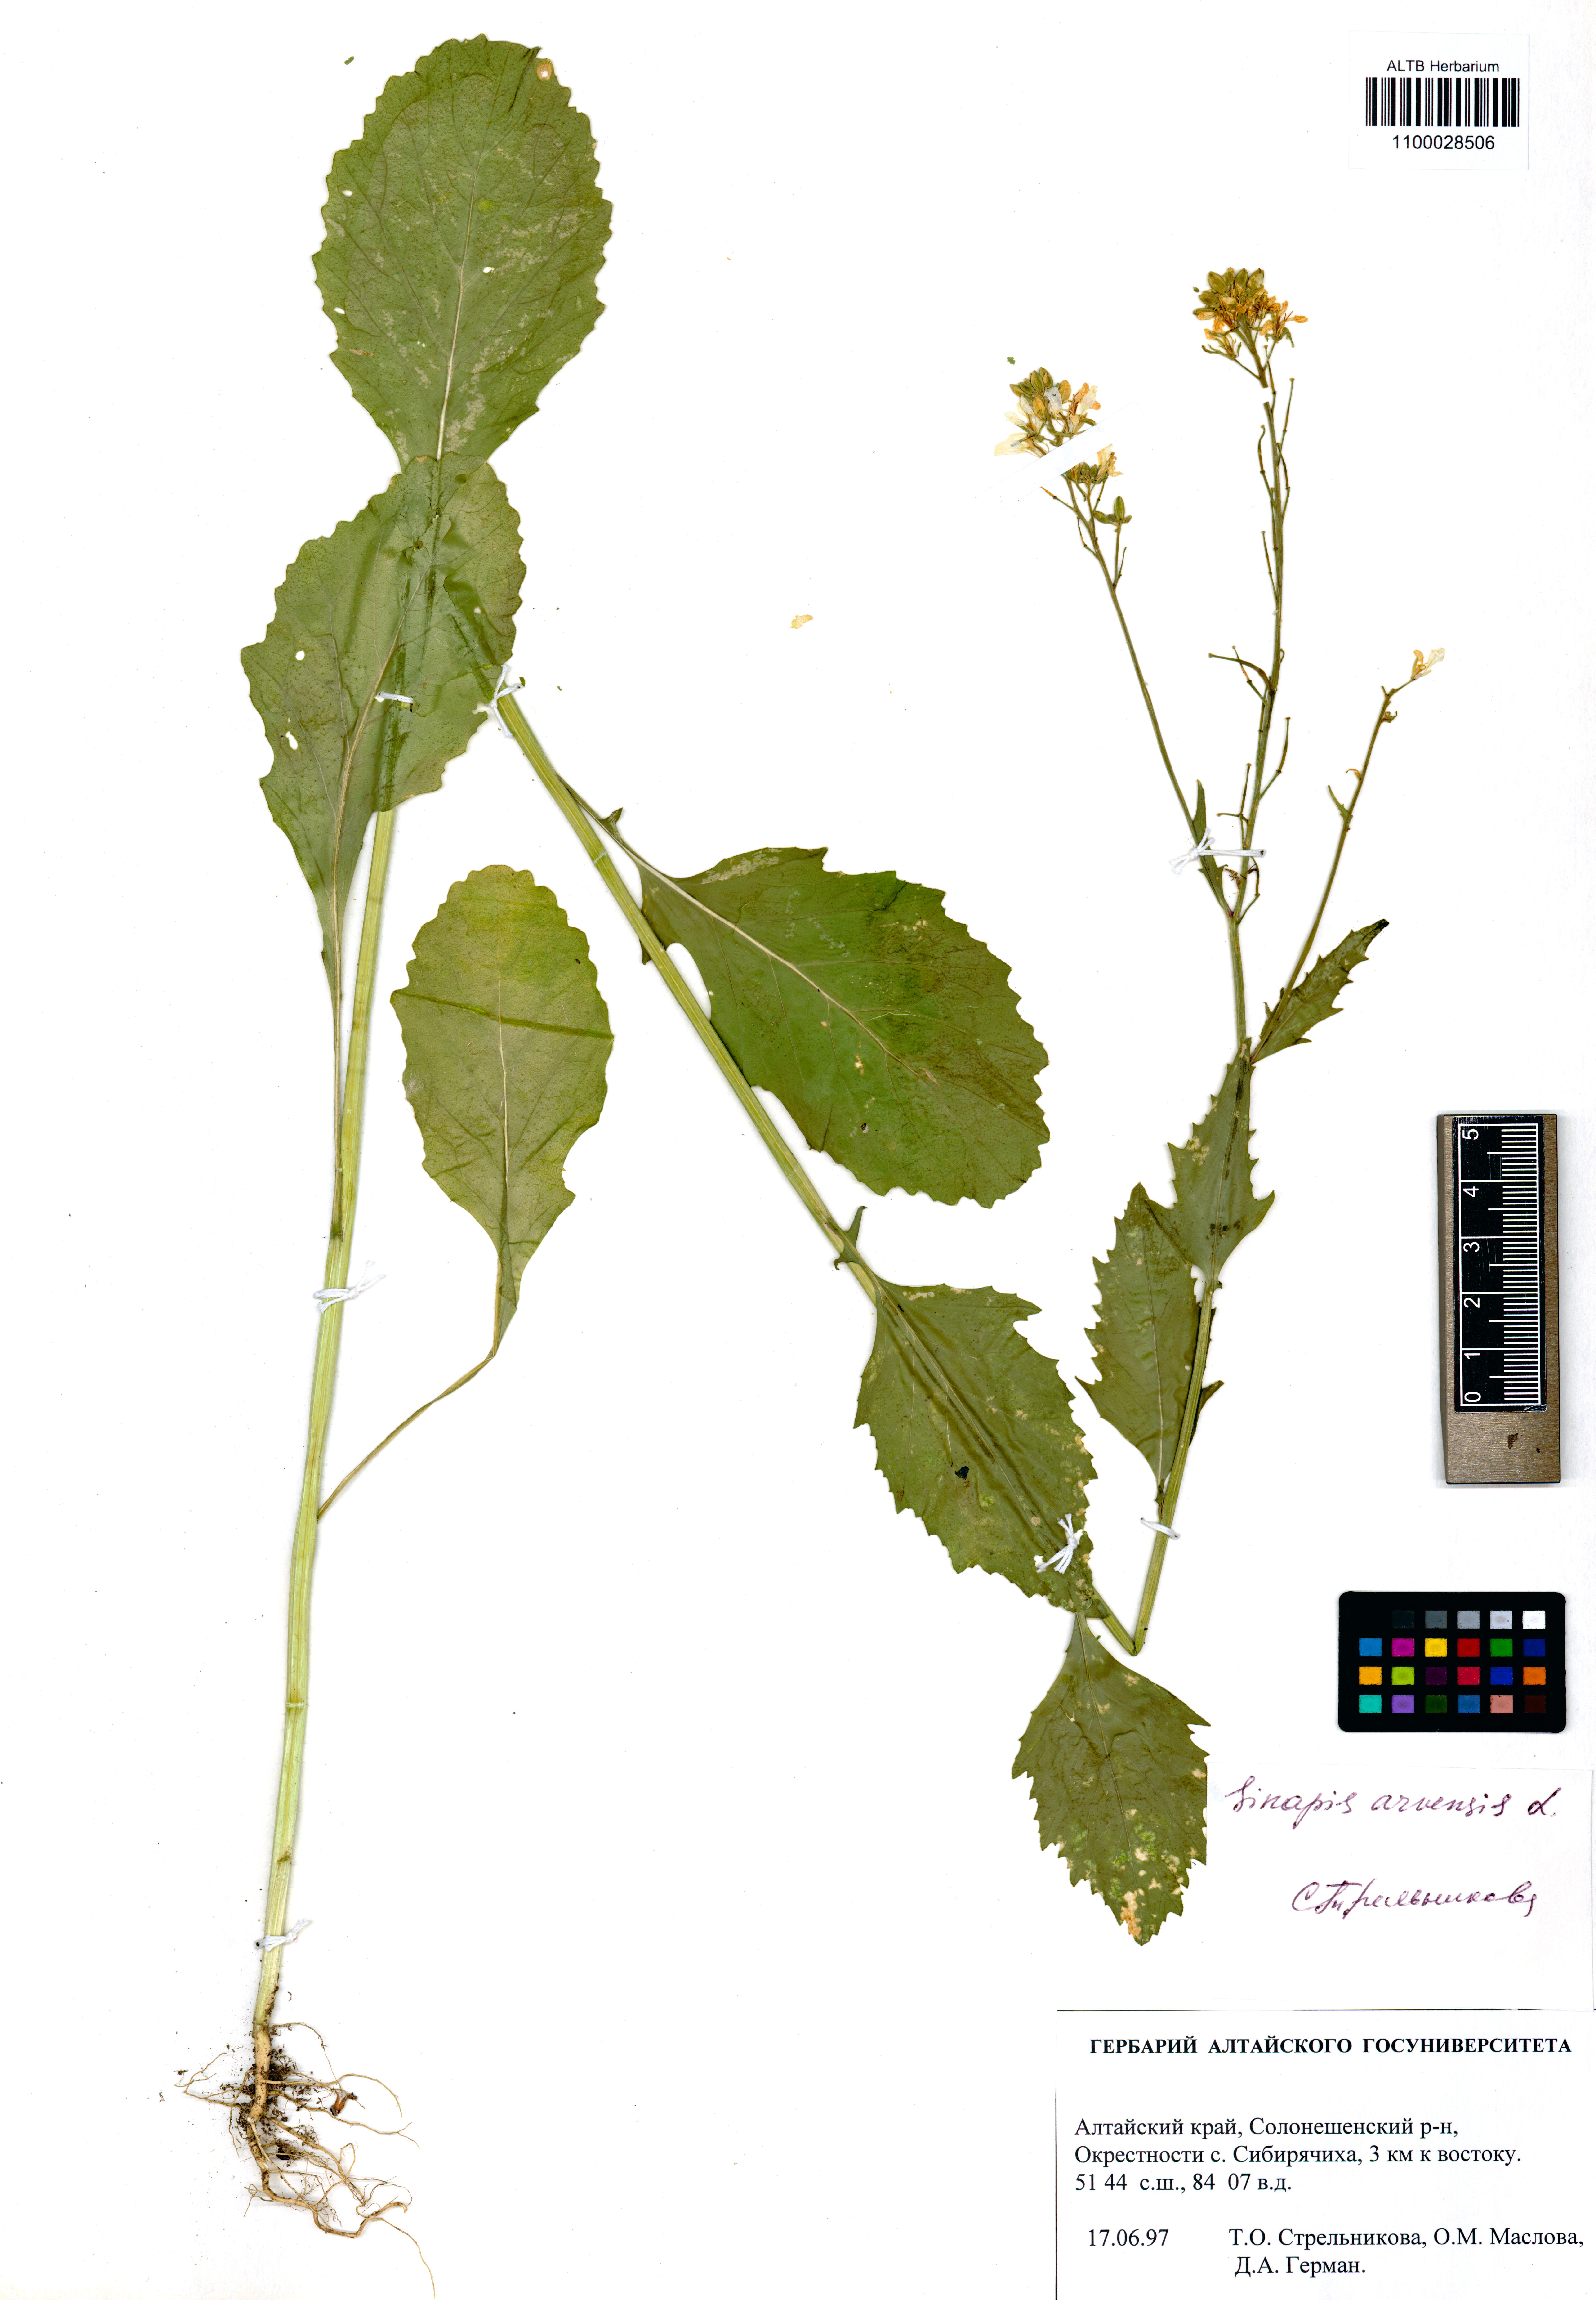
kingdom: Plantae
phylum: Tracheophyta
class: Magnoliopsida
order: Brassicales
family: Brassicaceae
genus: Sinapis
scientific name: Sinapis arvensis
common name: Charlock
